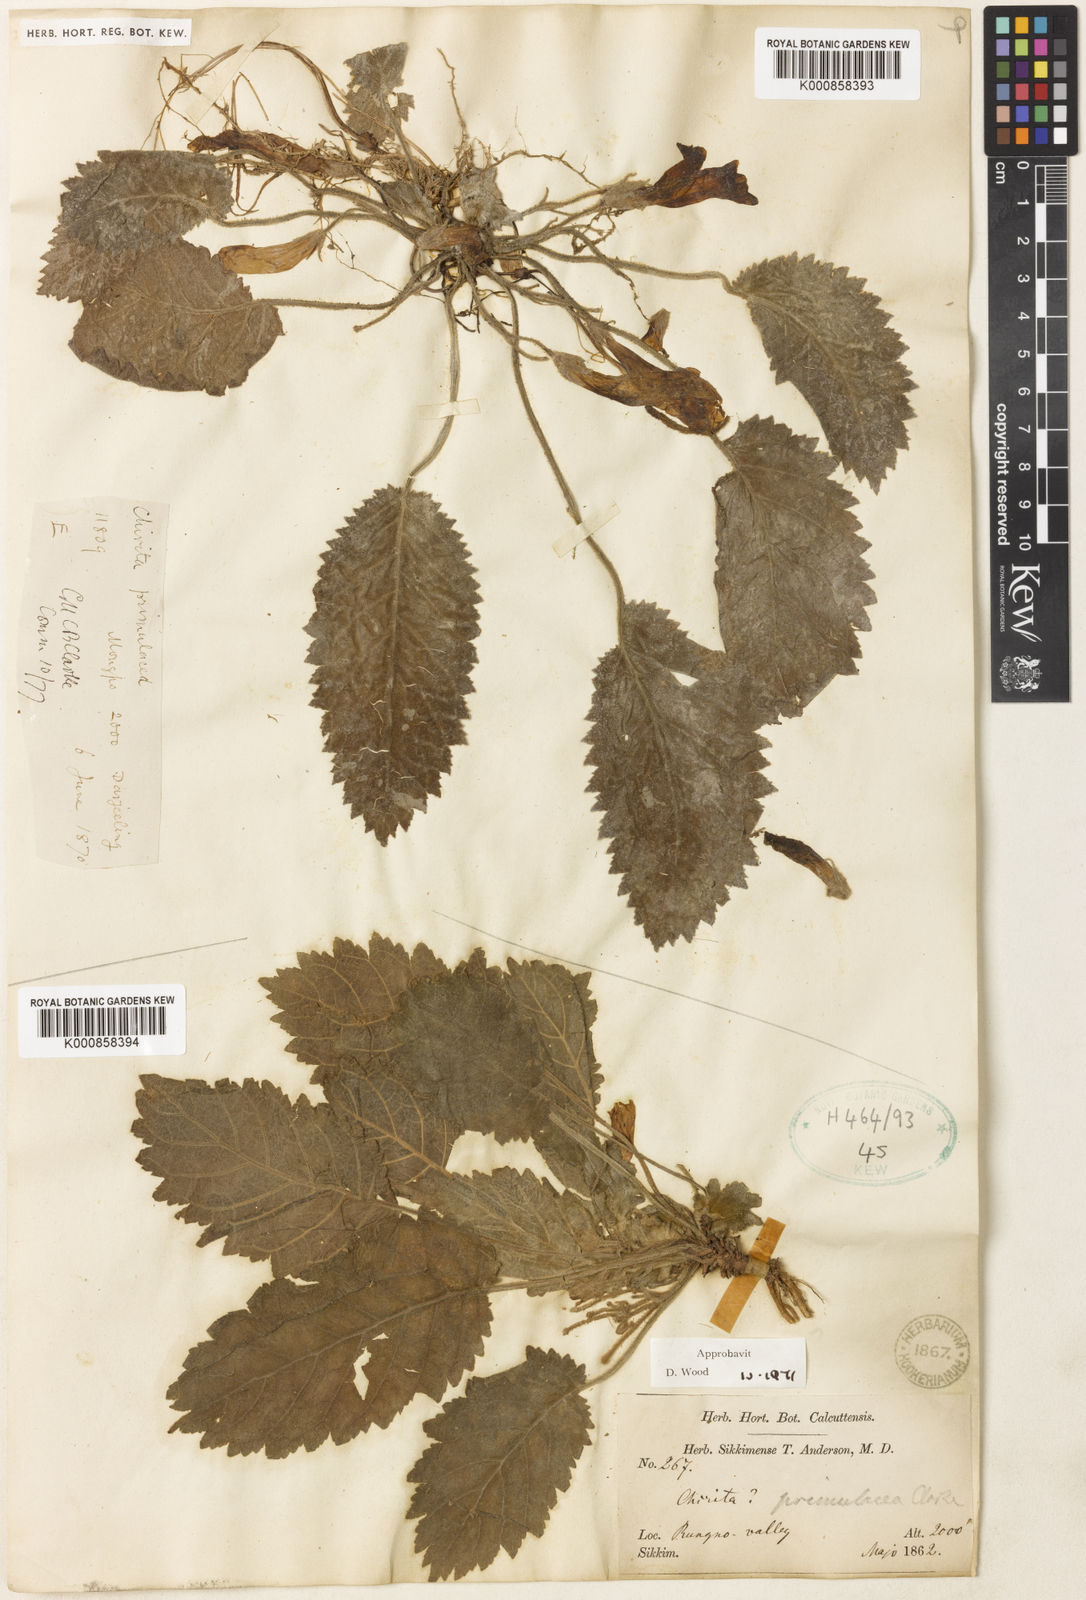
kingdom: Plantae
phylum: Tracheophyta
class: Magnoliopsida
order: Lamiales
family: Gesneriaceae
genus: Henckelia
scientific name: Henckelia primulacea
